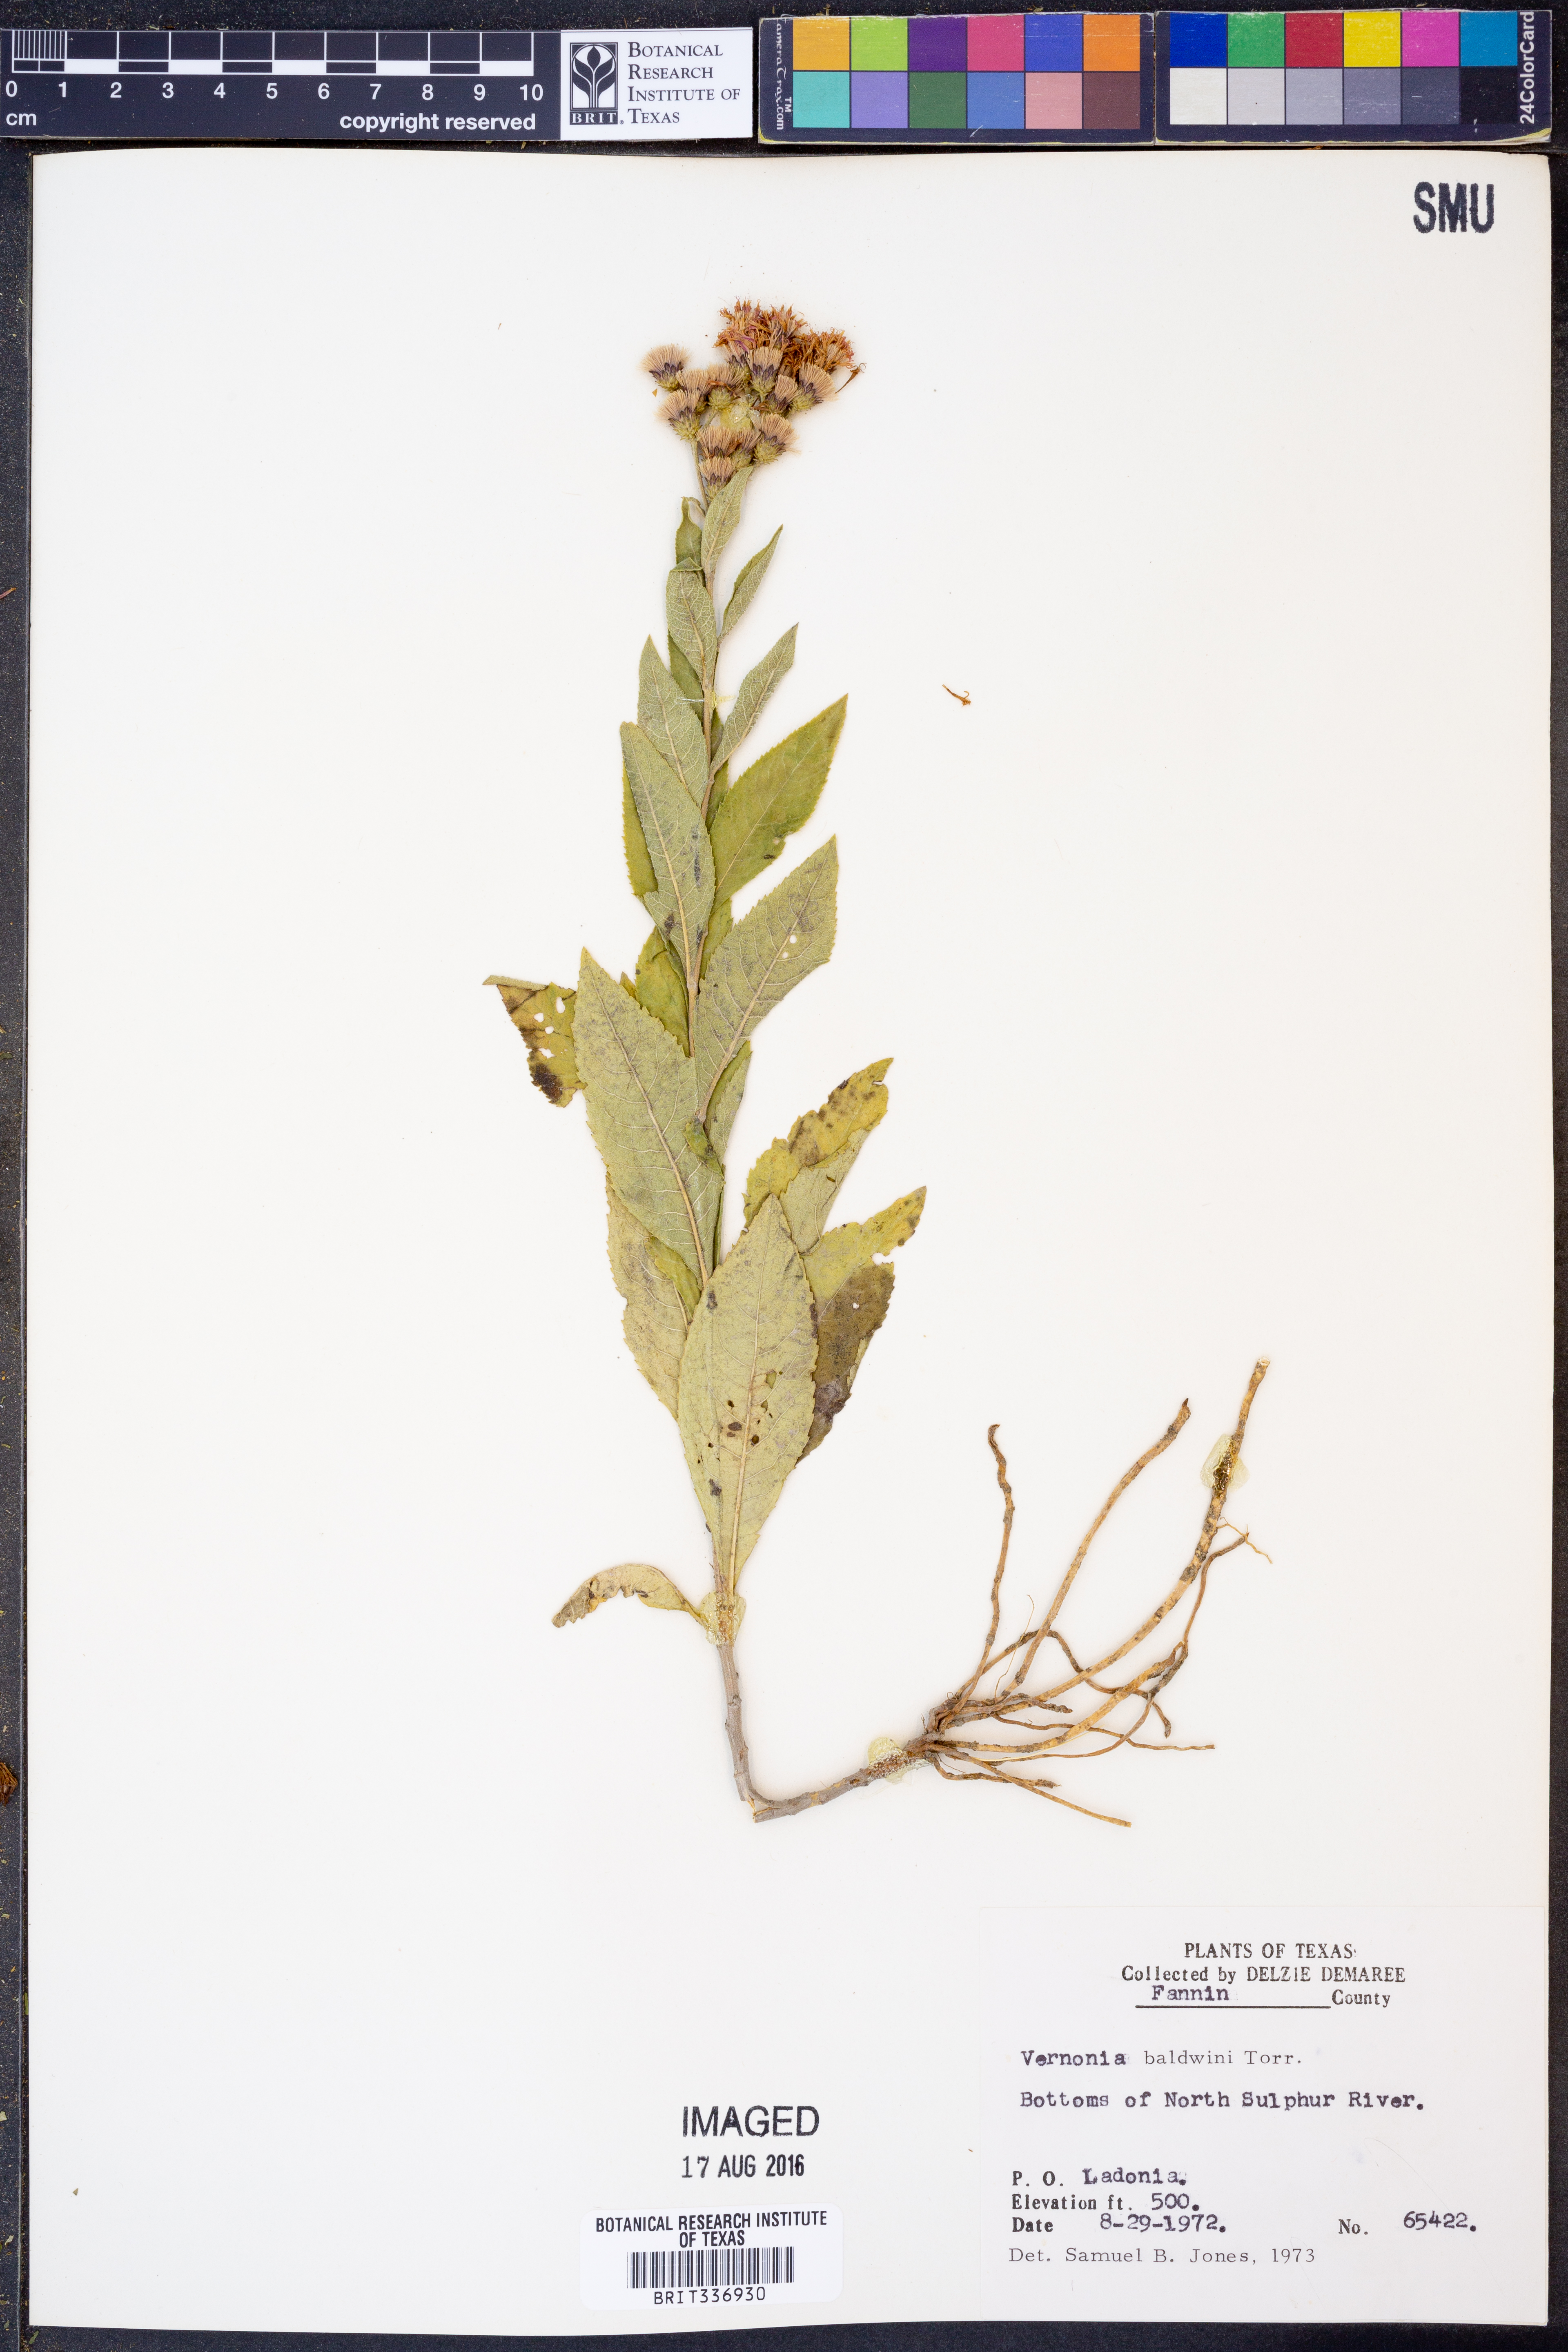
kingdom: Plantae
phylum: Tracheophyta
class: Magnoliopsida
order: Asterales
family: Asteraceae
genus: Vernonia
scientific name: Vernonia baldwinii
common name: Western ironweed
